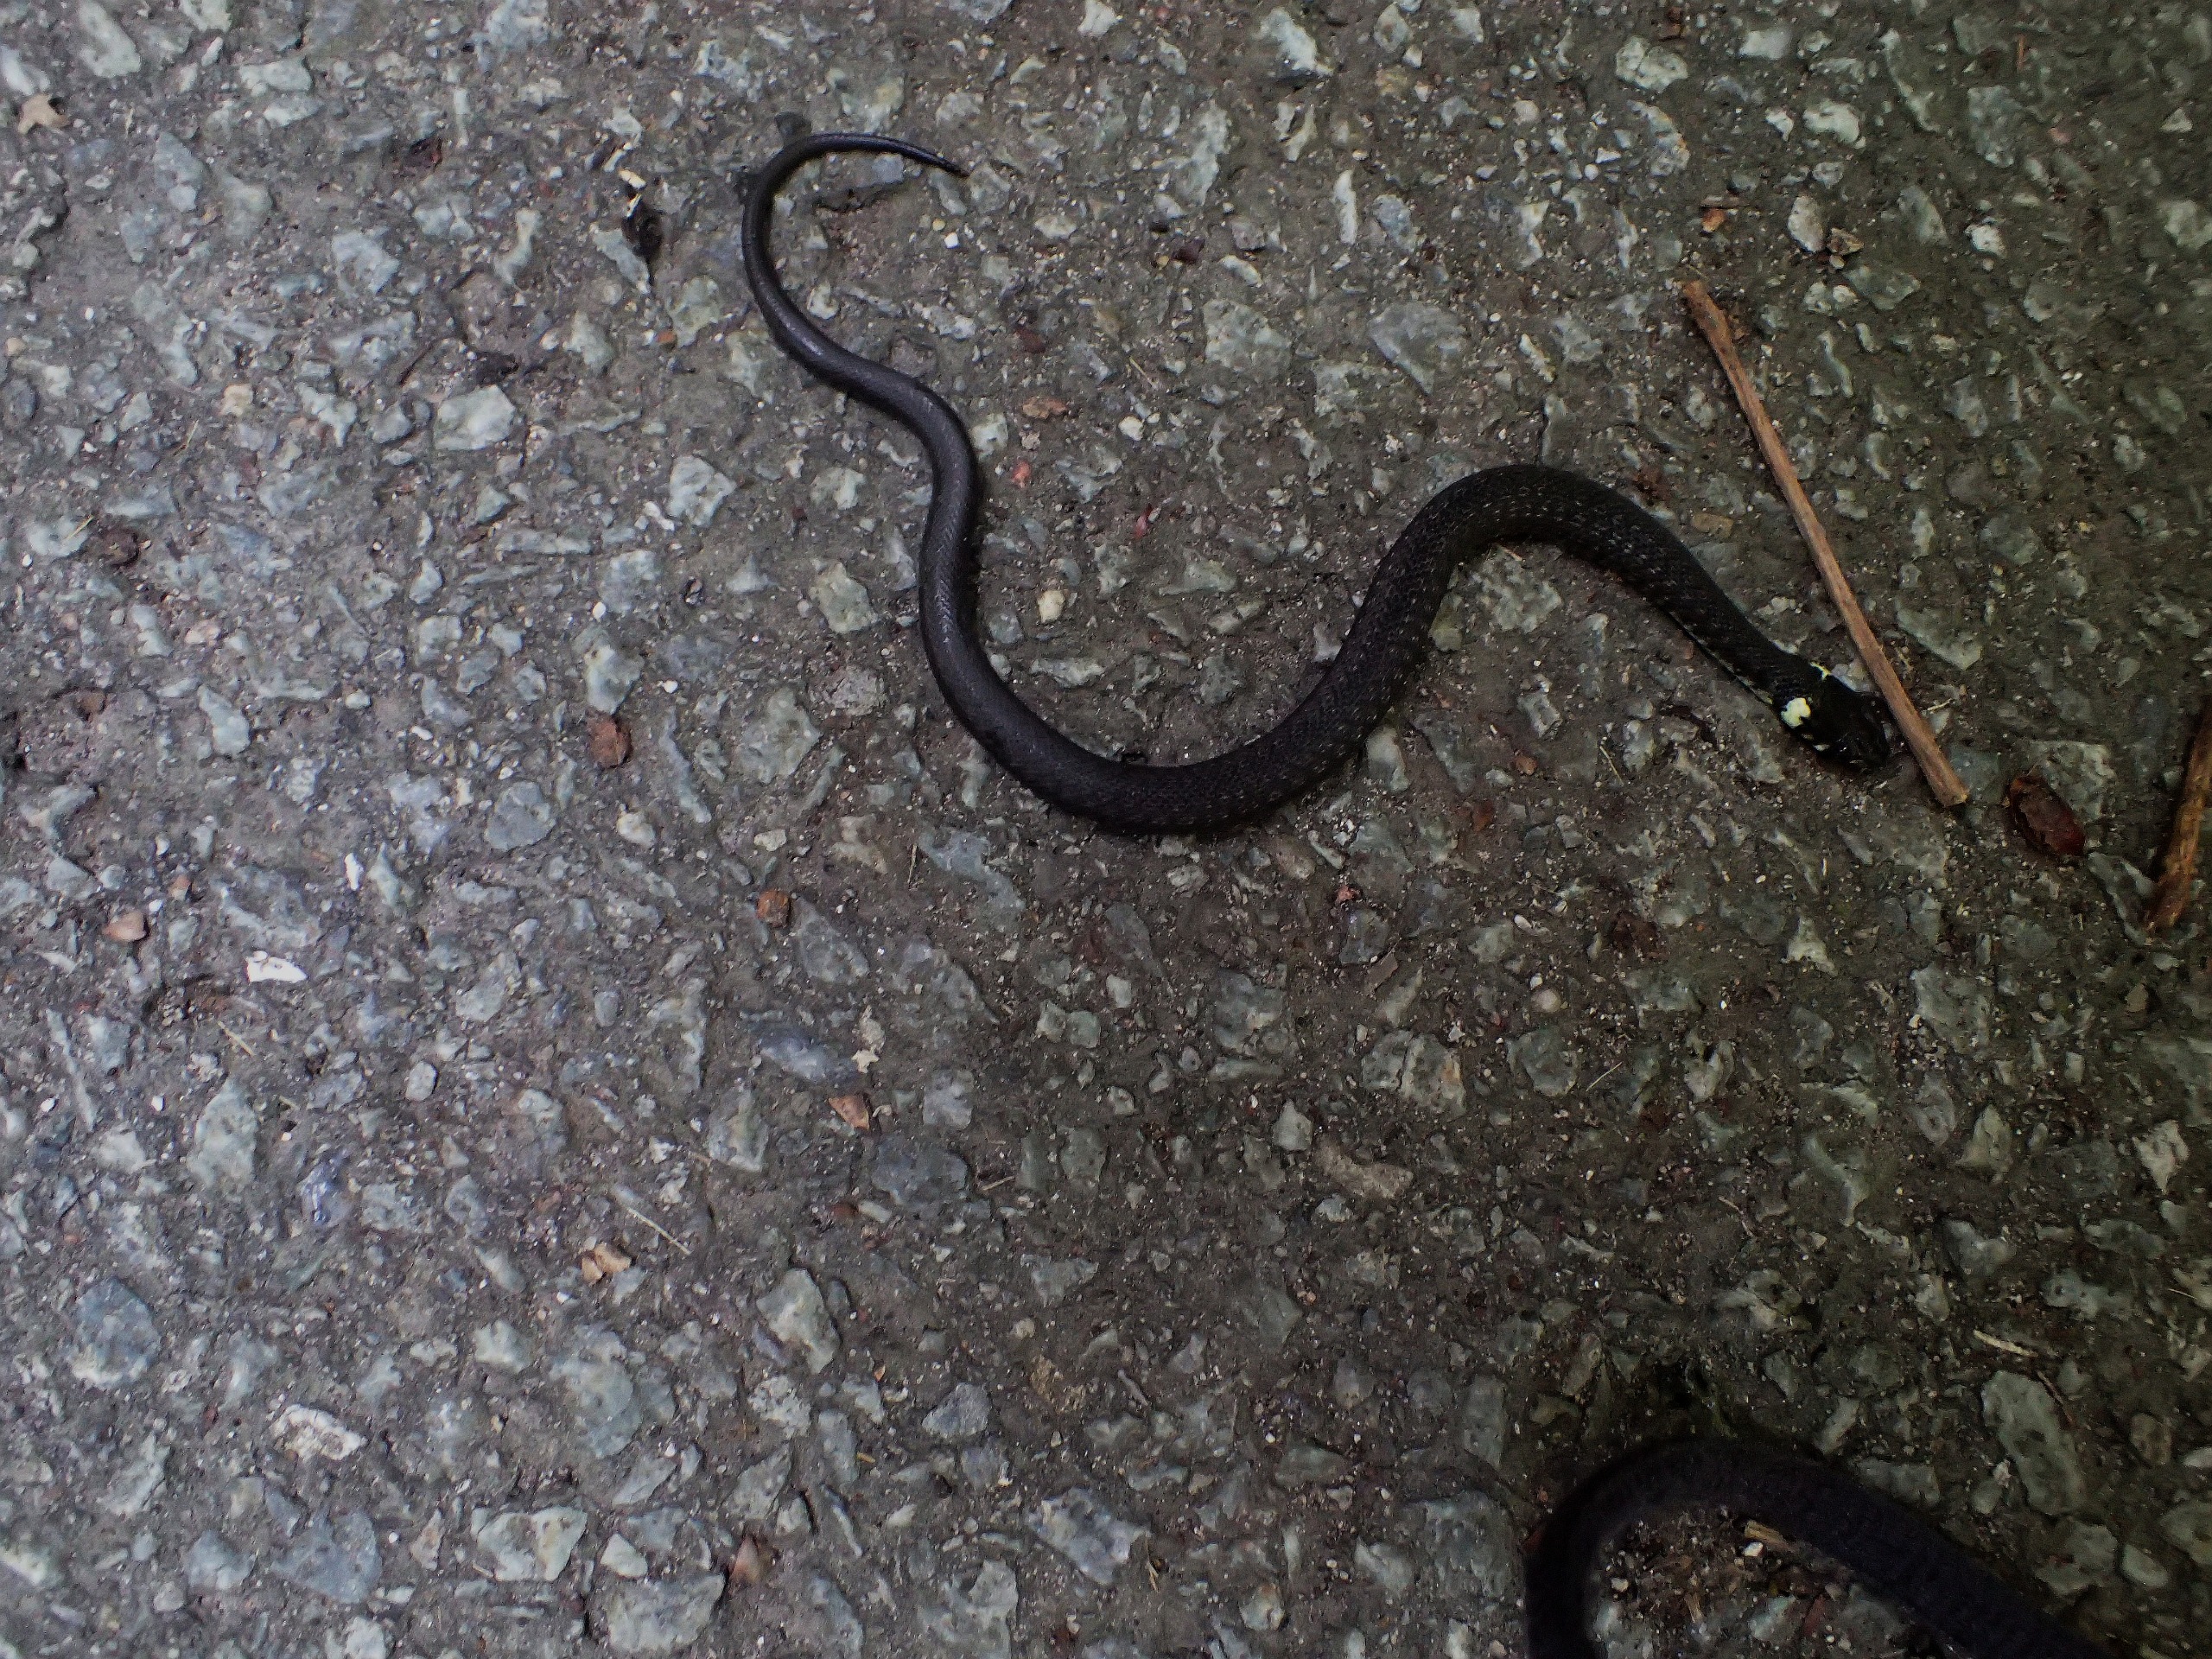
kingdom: Animalia
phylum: Chordata
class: Squamata
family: Colubridae
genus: Natrix
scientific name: Natrix natrix
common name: Snog
